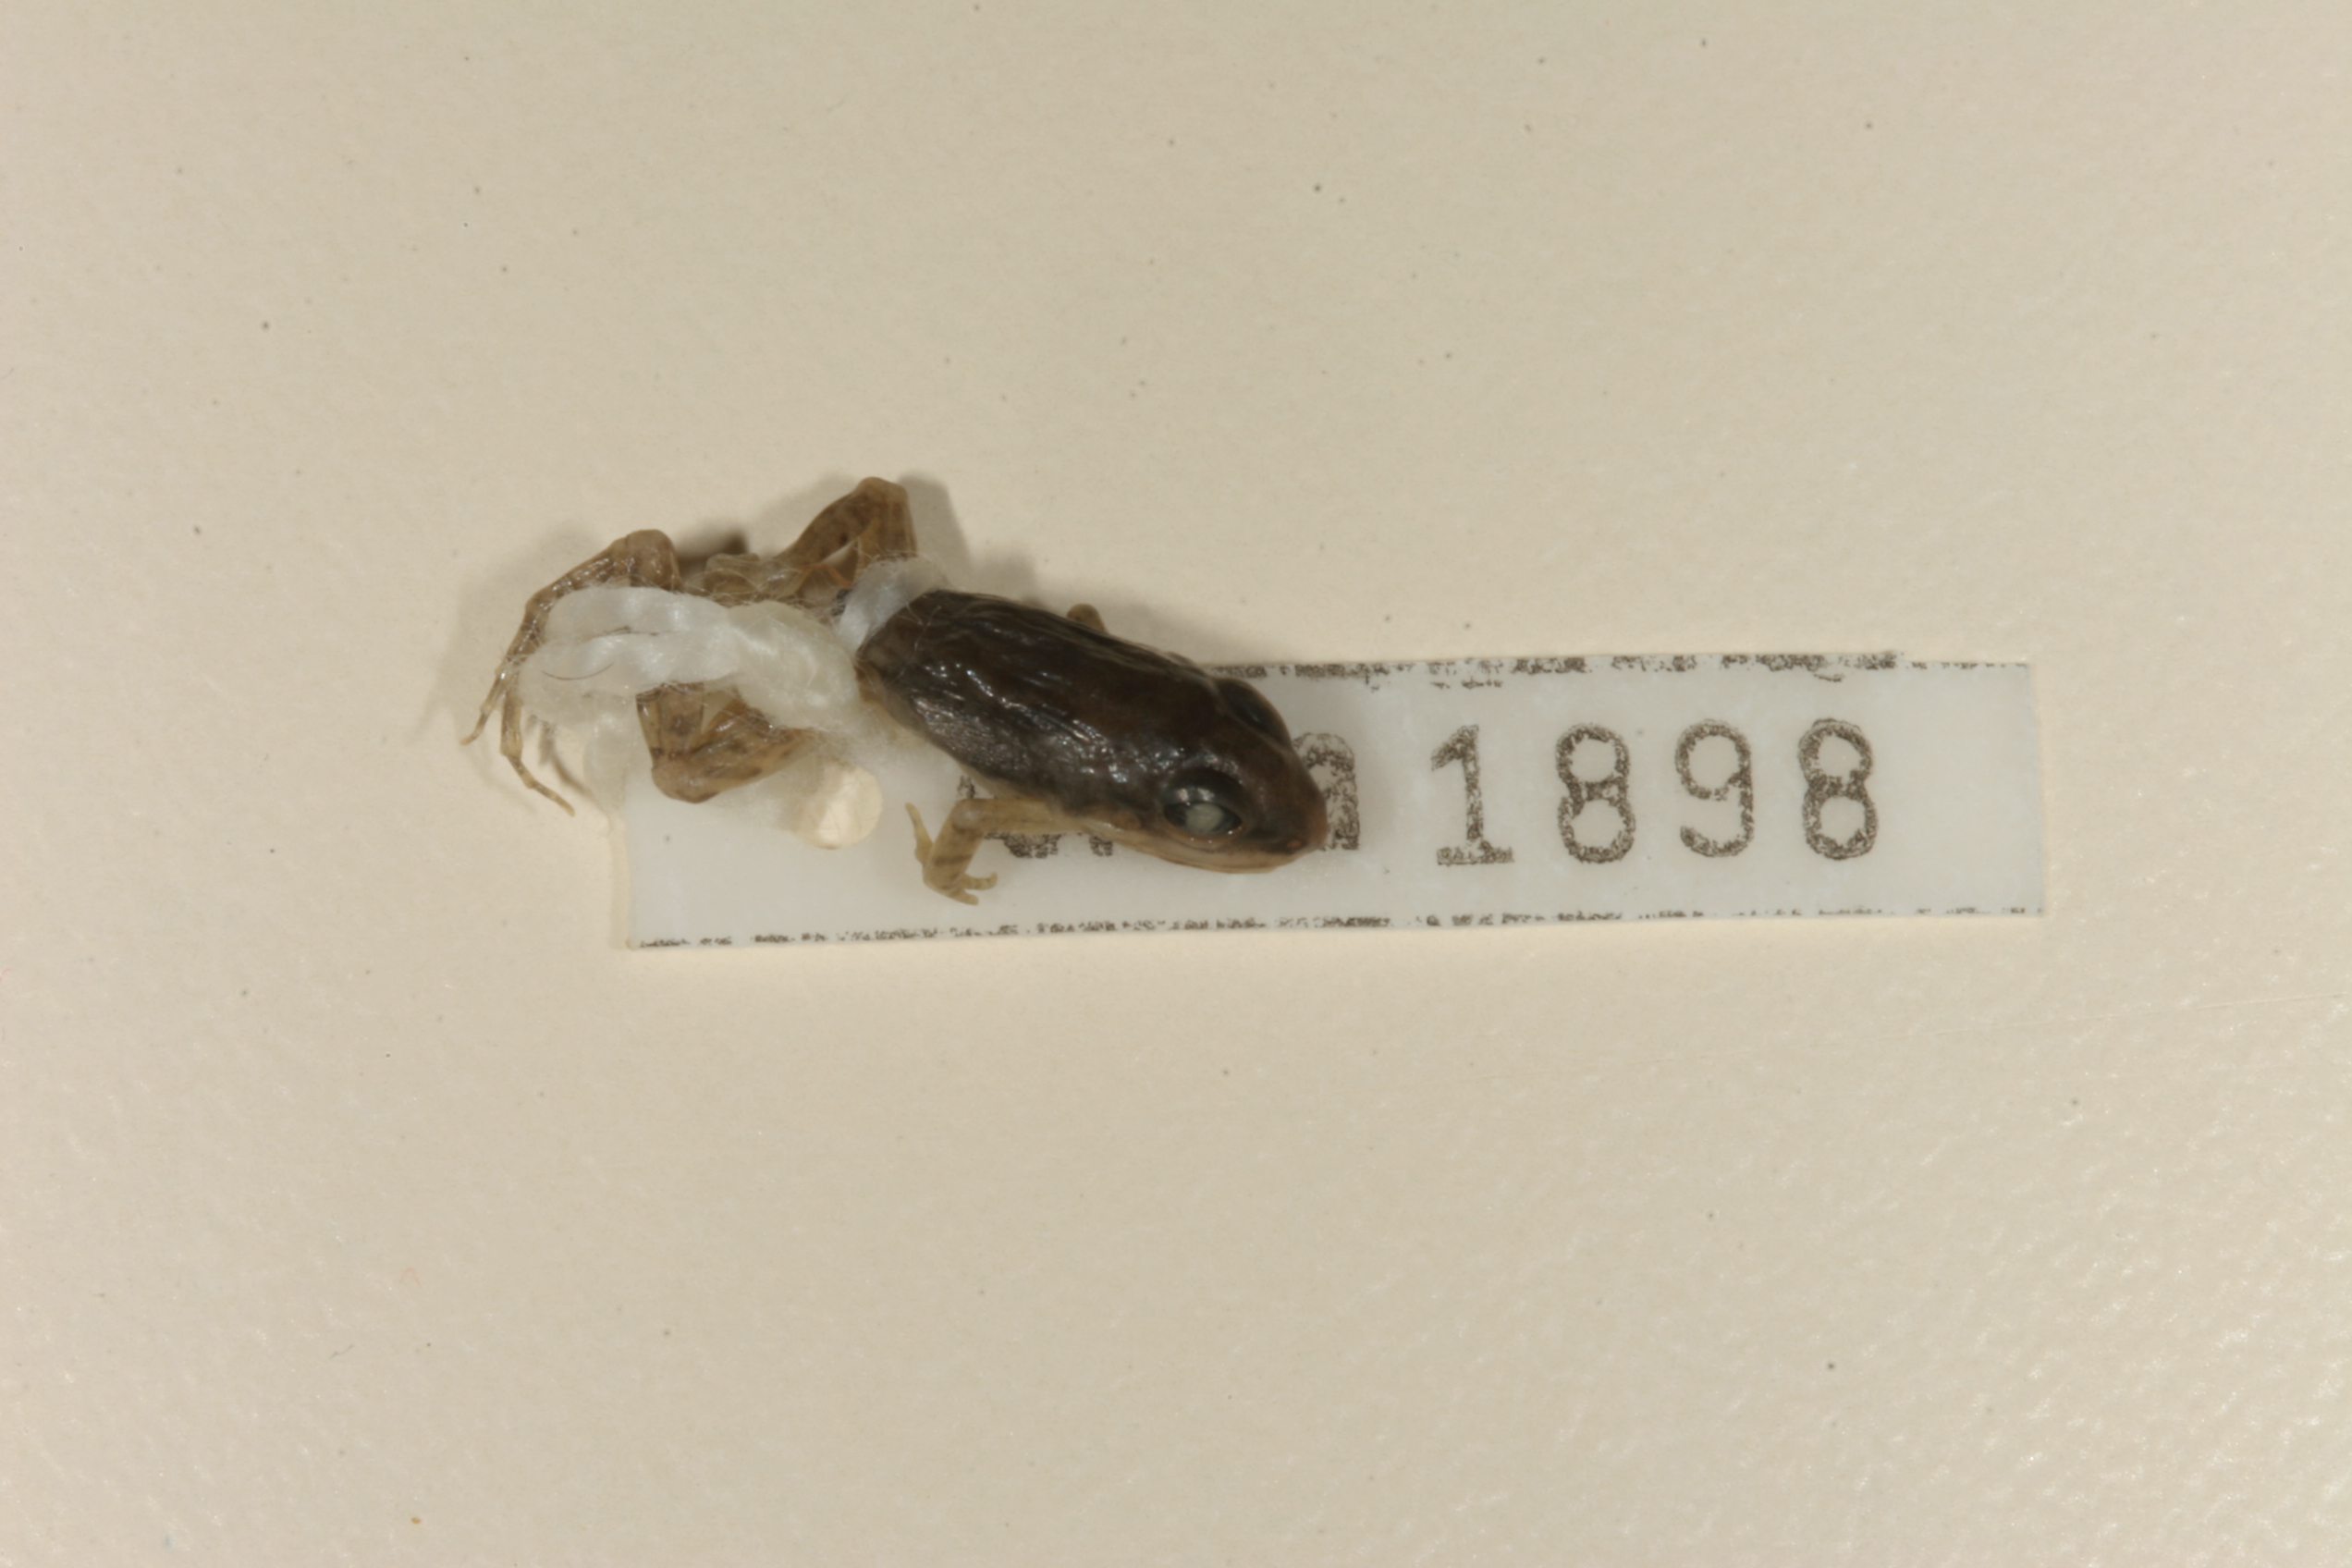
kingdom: Animalia
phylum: Chordata
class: Amphibia
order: Anura
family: Ptychadenidae
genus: Ptychadena
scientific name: Ptychadena anchietae
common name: Anchieta's ridged frog
